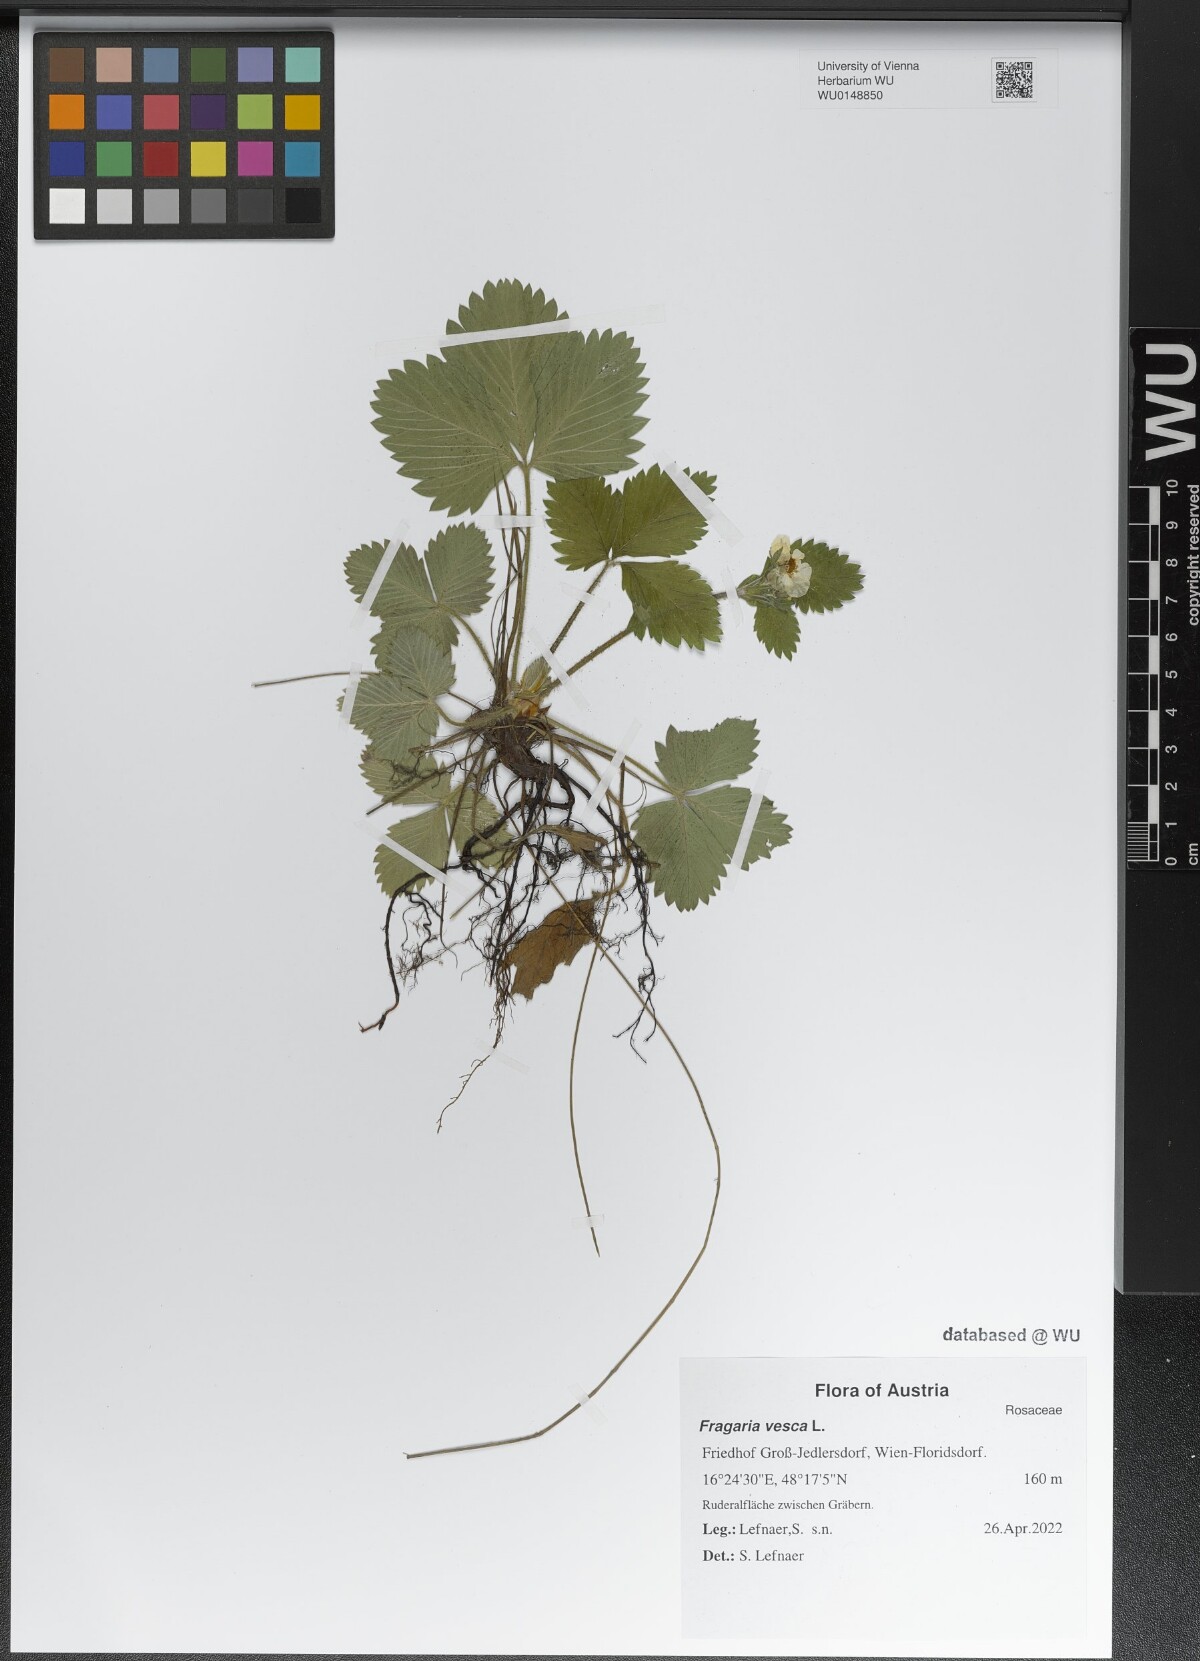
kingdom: Plantae
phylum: Tracheophyta
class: Magnoliopsida
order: Rosales
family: Rosaceae
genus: Fragaria
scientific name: Fragaria vesca
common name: Wild strawberry
